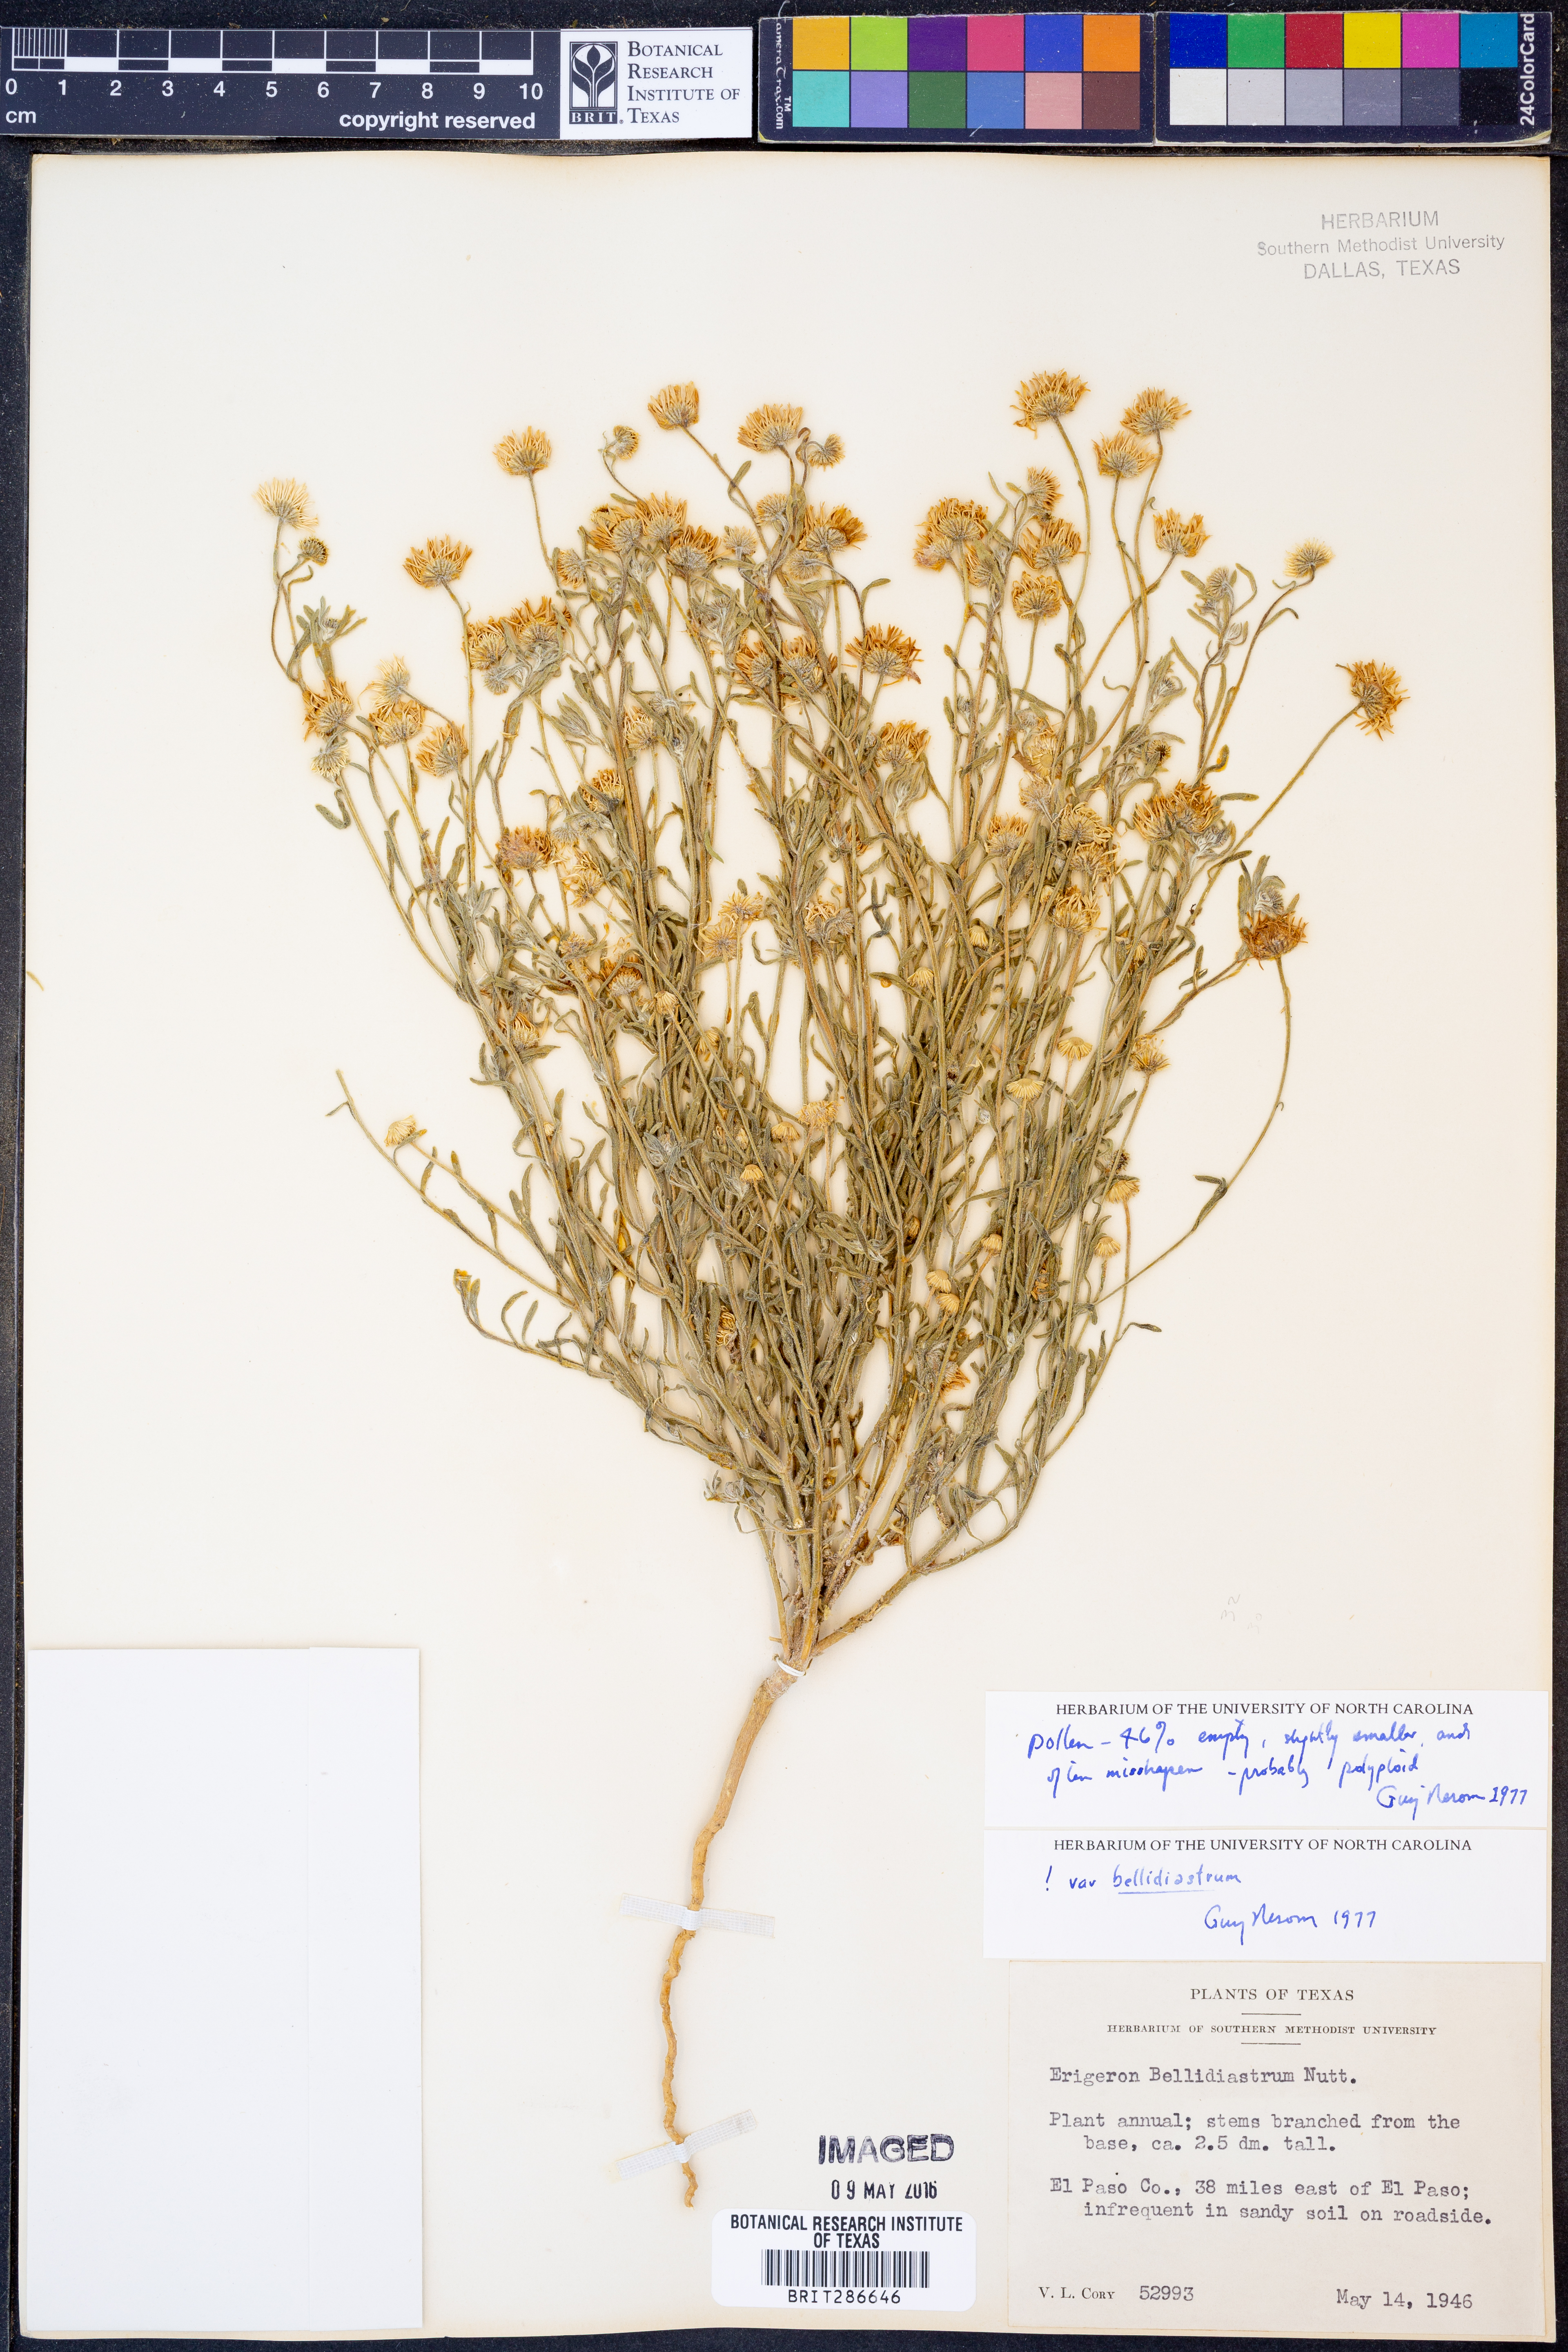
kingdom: Plantae
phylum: Tracheophyta
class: Magnoliopsida
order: Asterales
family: Asteraceae
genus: Erigeron
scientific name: Erigeron bellidiastrum
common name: Sand fleabane
